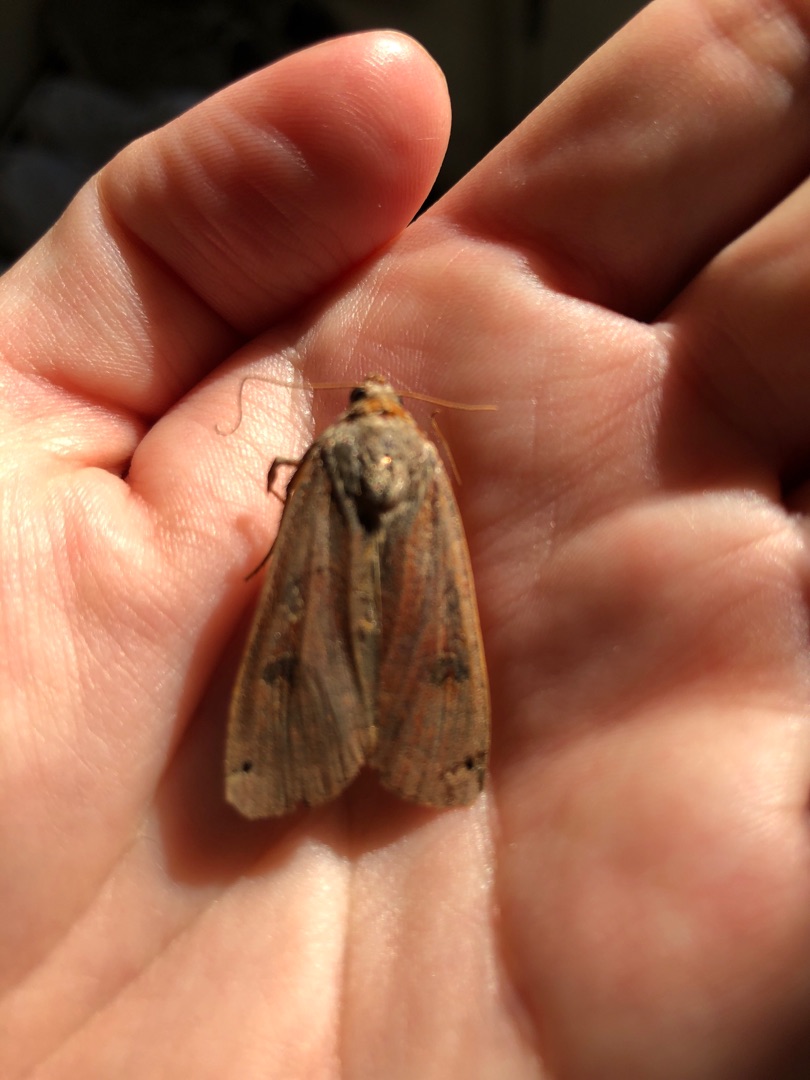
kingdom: Animalia
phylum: Arthropoda
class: Insecta
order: Lepidoptera
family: Noctuidae
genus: Noctua
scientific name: Noctua pronuba
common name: Stor smutugle
